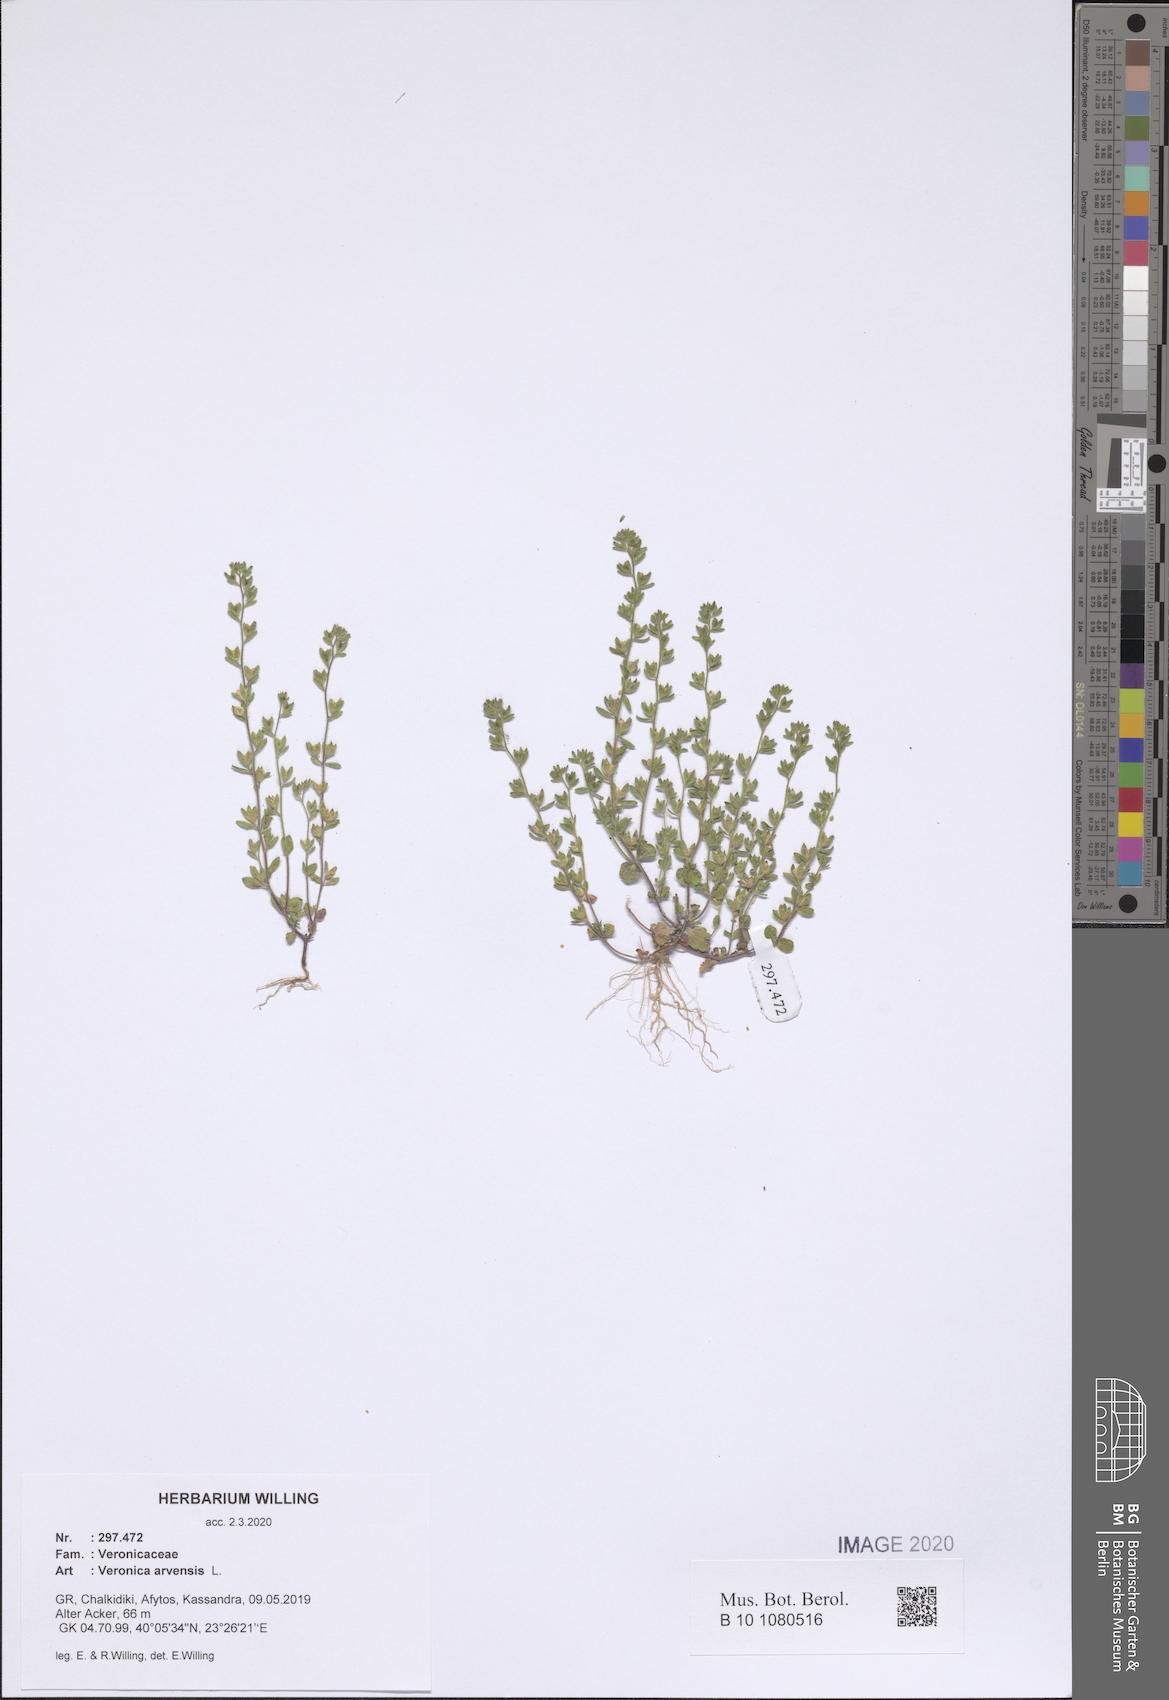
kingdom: Plantae
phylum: Tracheophyta
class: Magnoliopsida
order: Lamiales
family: Plantaginaceae
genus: Veronica
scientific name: Veronica arvensis
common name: Corn speedwell
